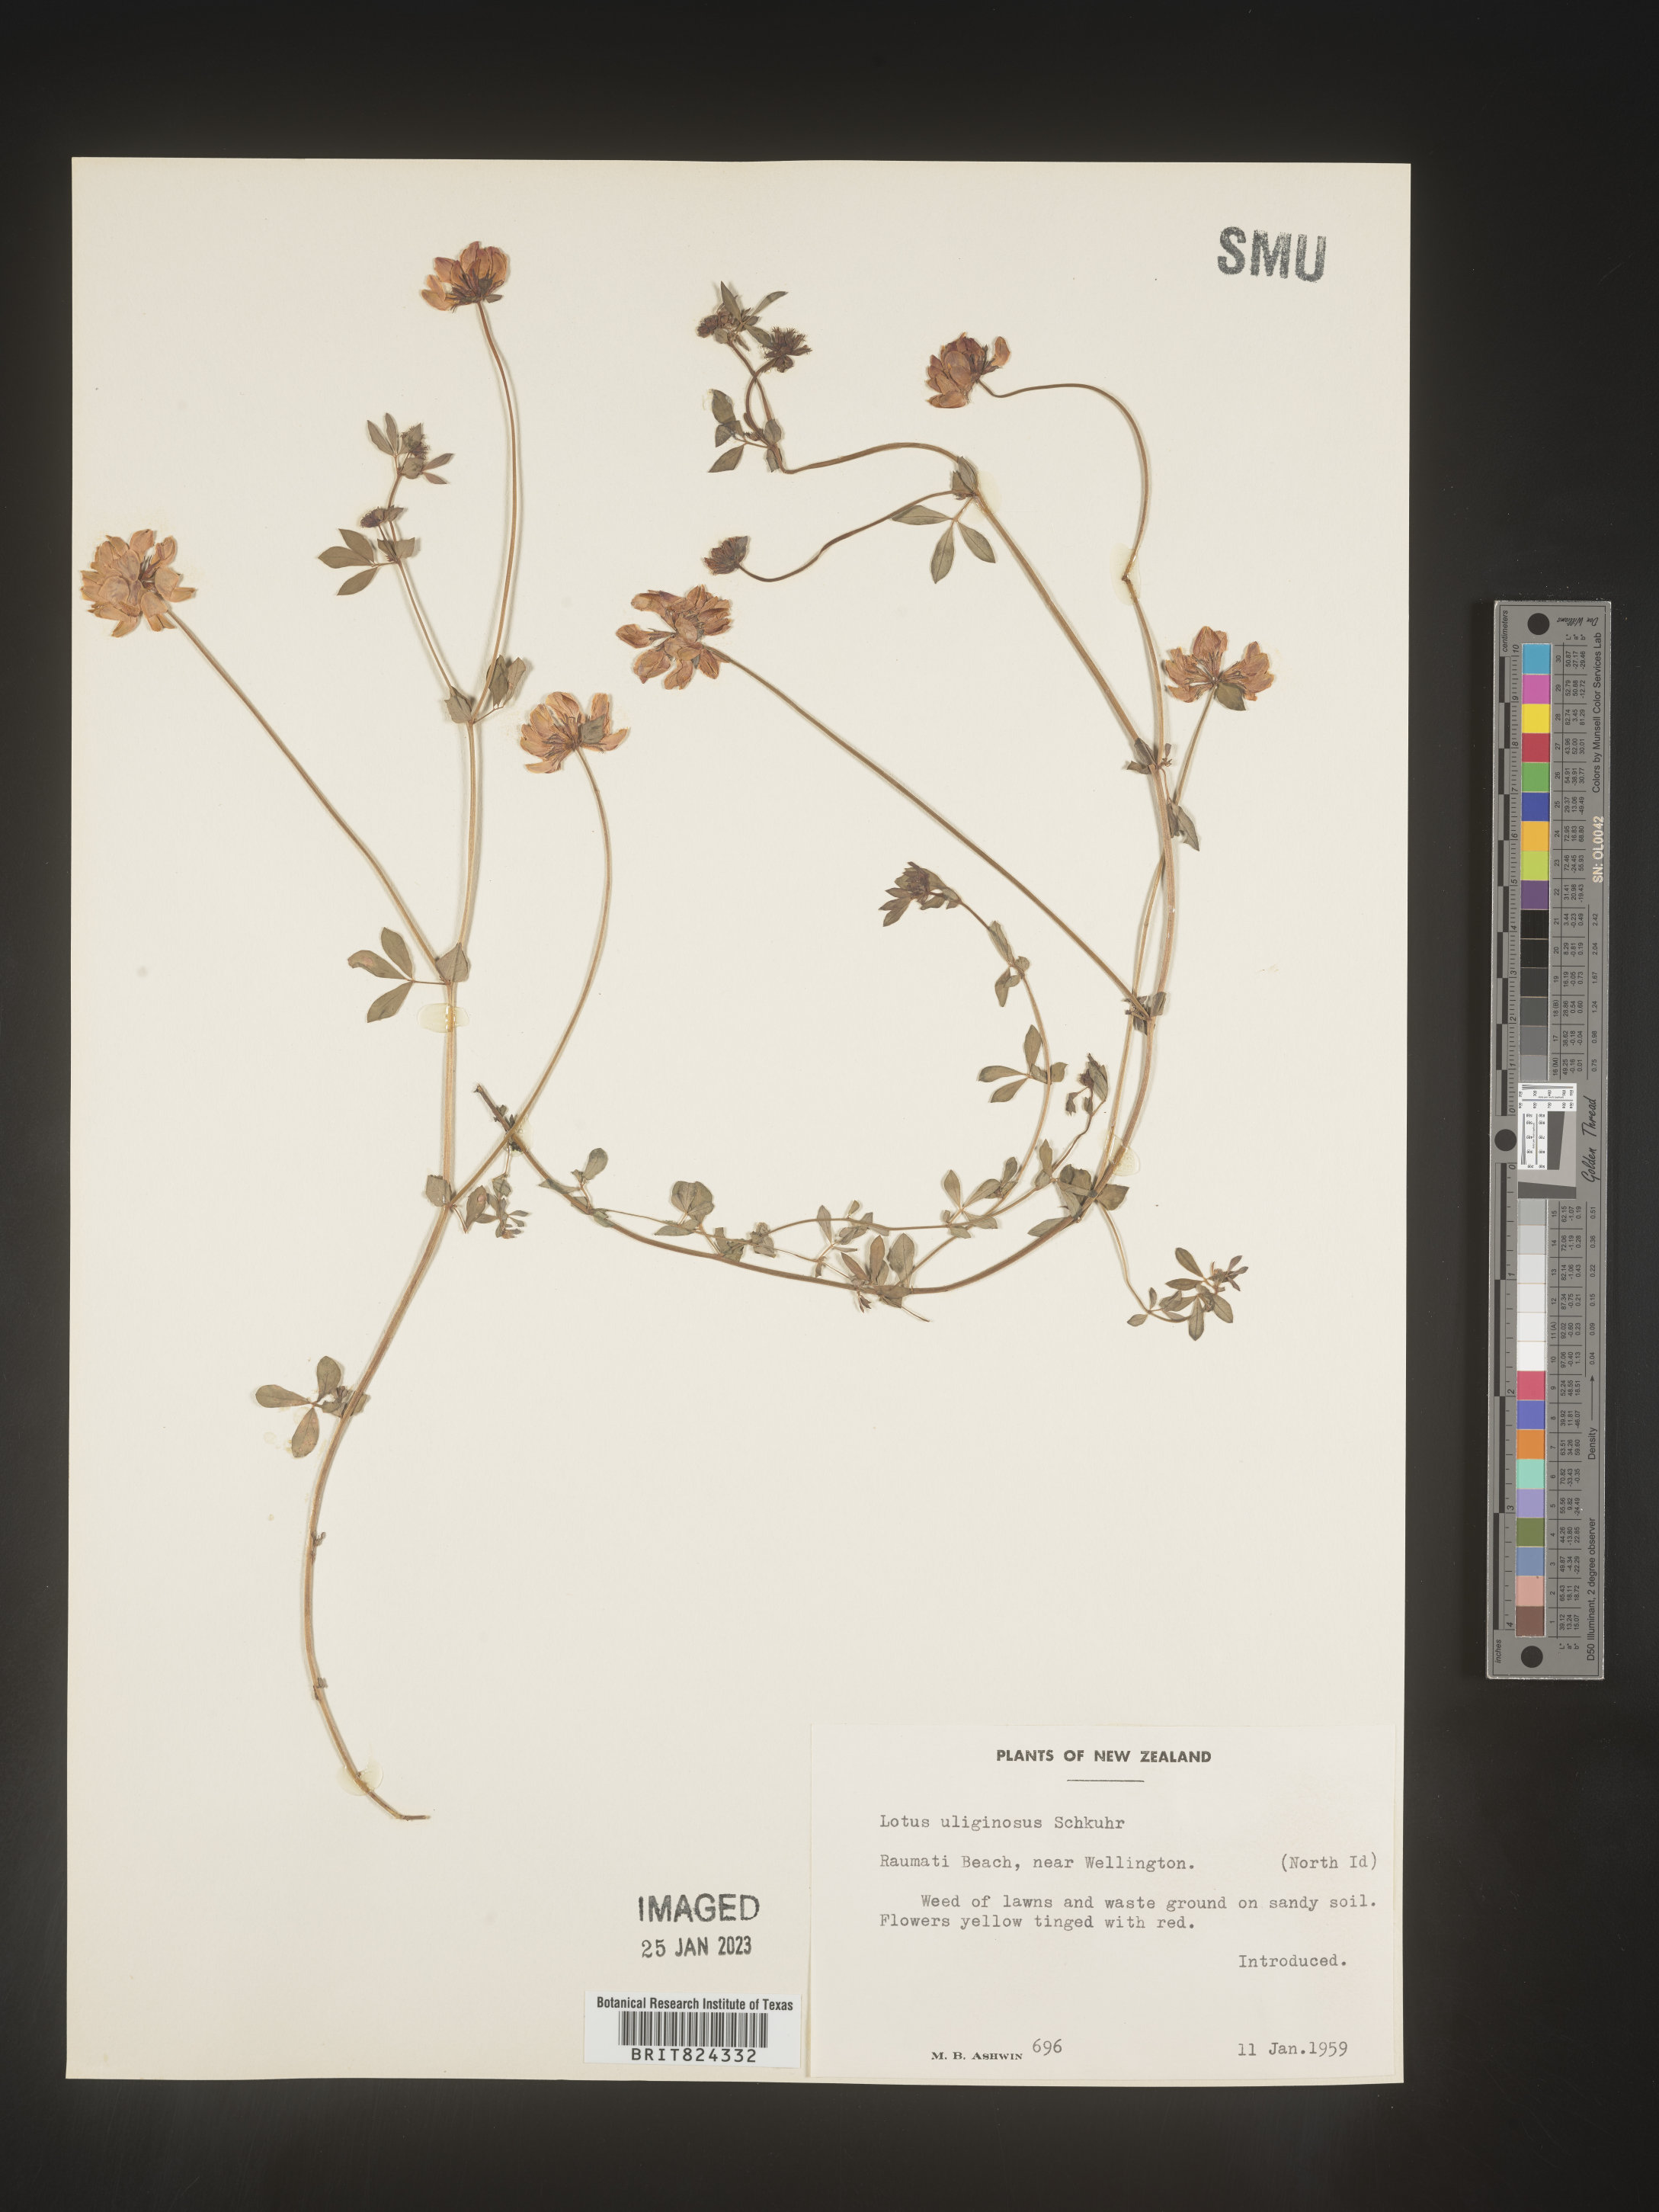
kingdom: Plantae
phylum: Tracheophyta
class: Magnoliopsida
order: Fabales
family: Fabaceae
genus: Lotus
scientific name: Lotus
